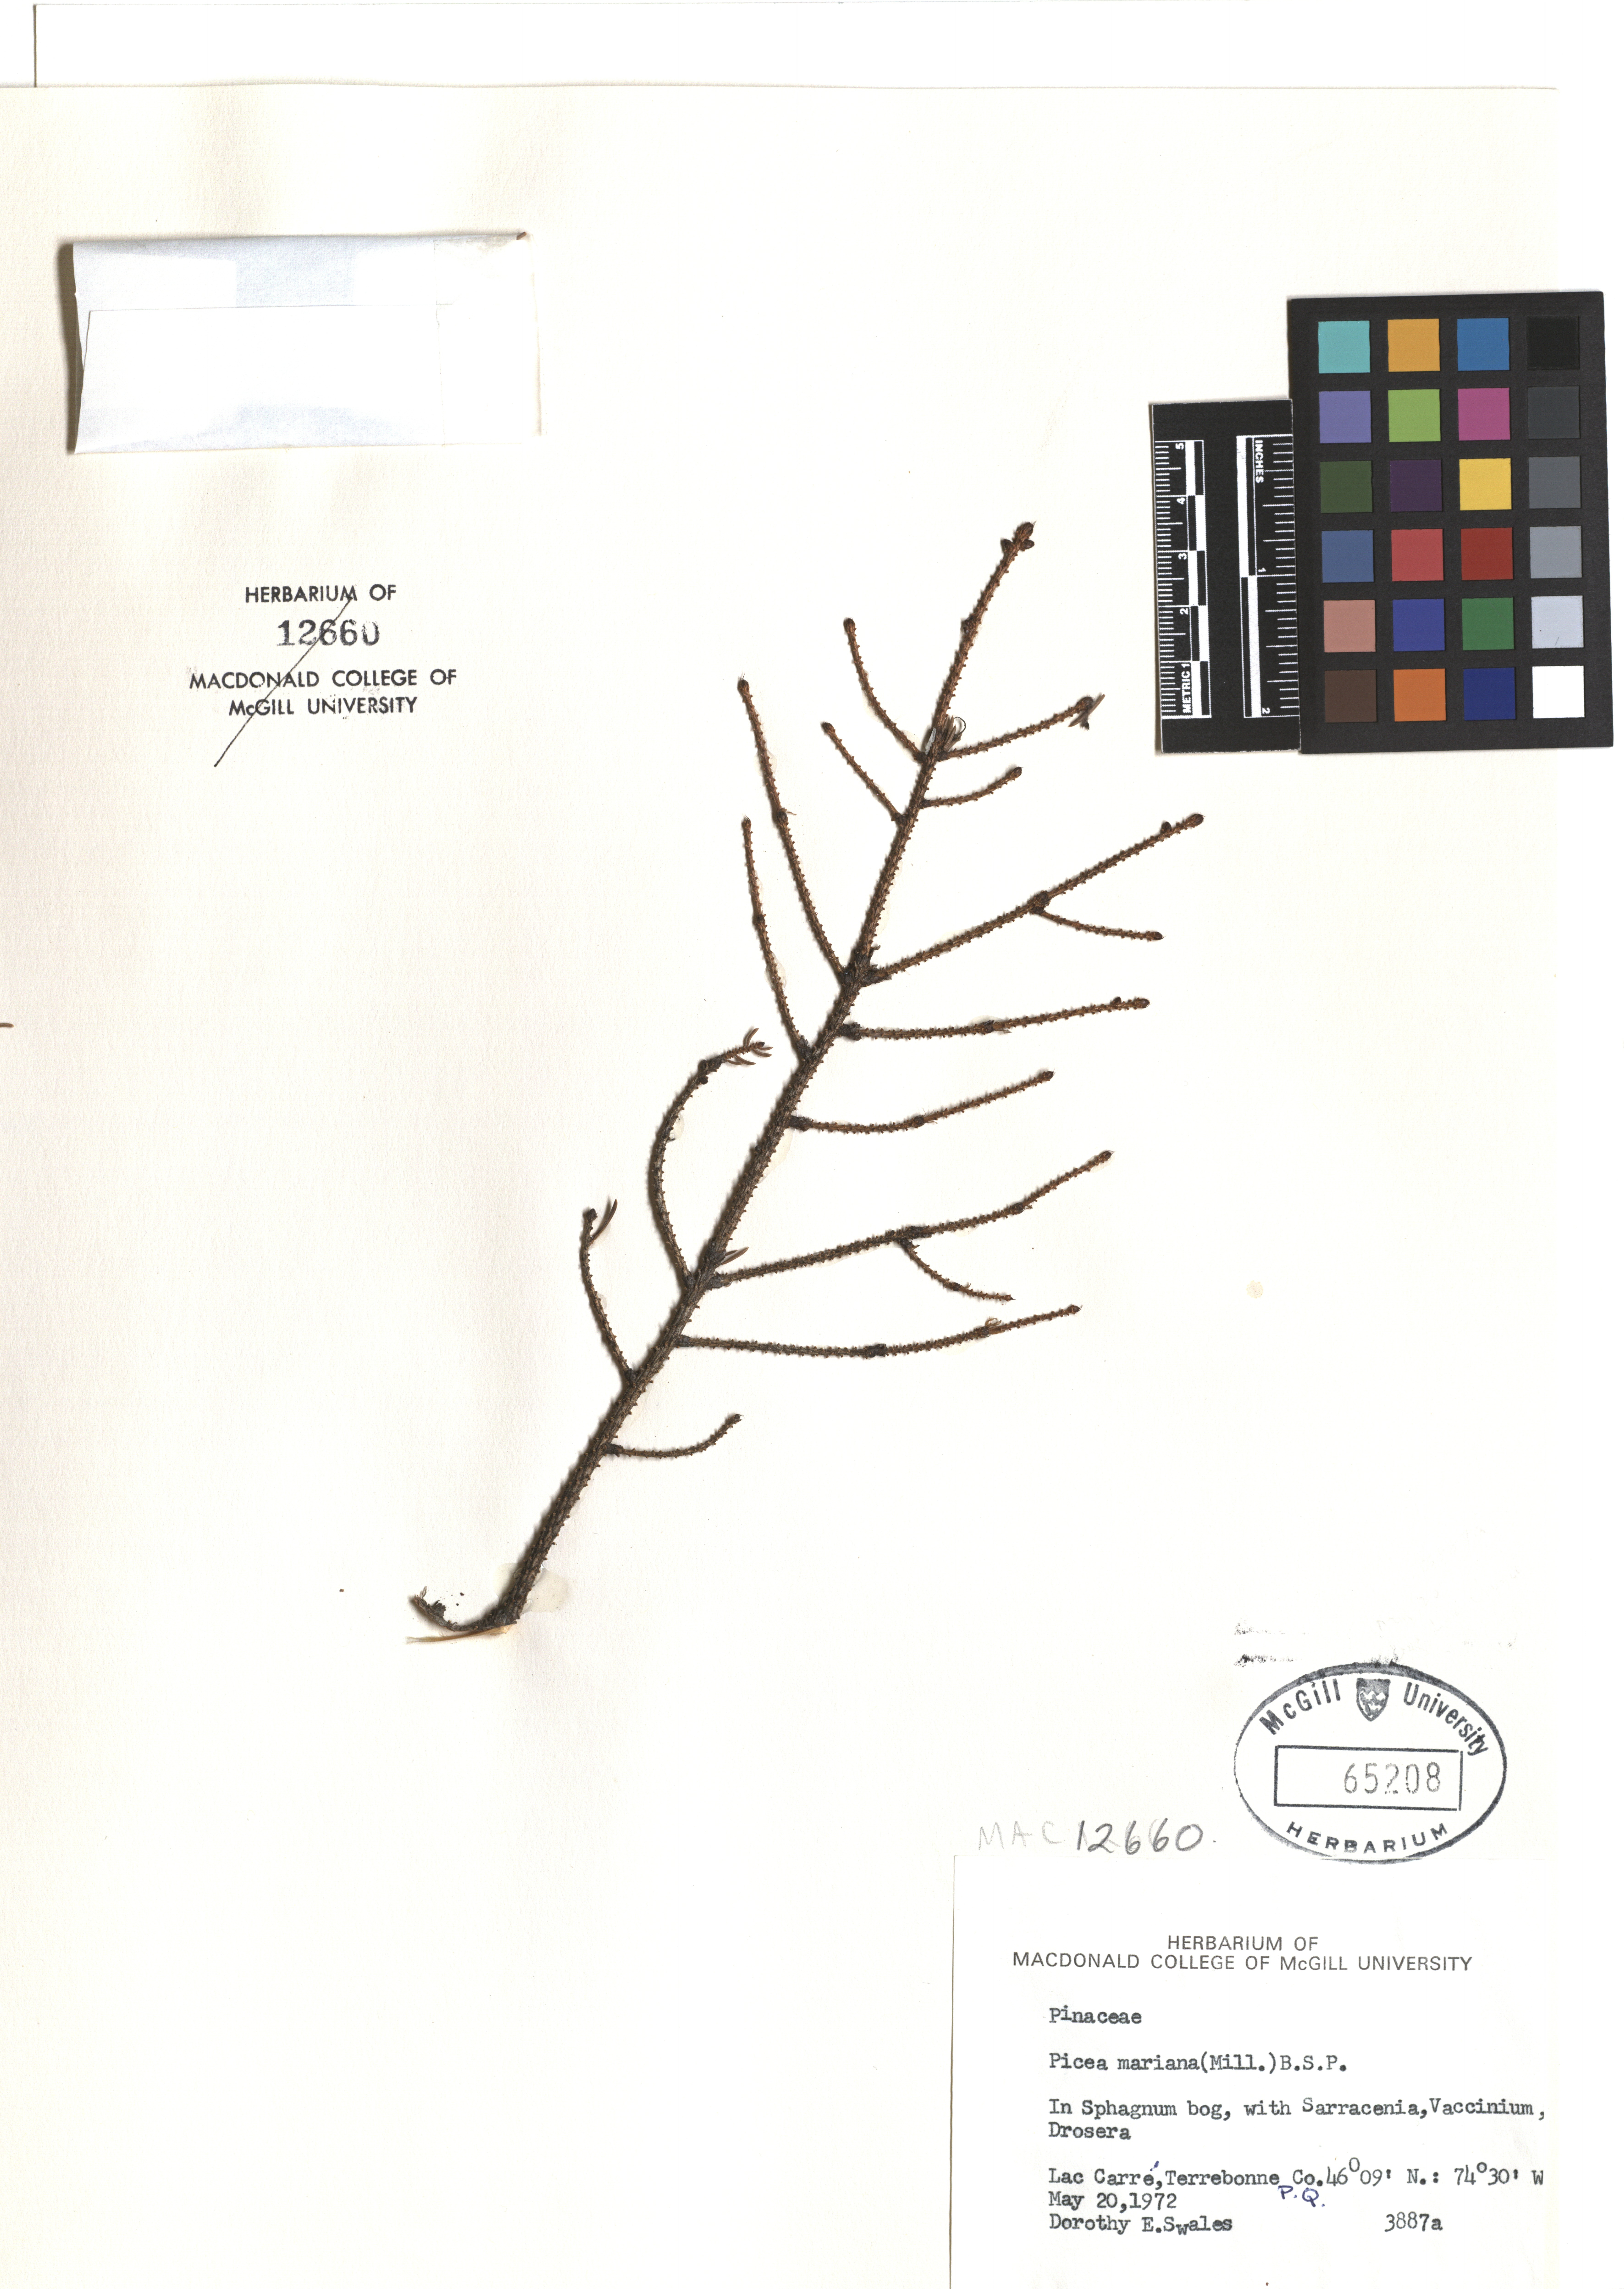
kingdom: Plantae
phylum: Tracheophyta
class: Pinopsida
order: Pinales
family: Pinaceae
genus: Picea
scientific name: Picea mariana
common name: Black spruce
